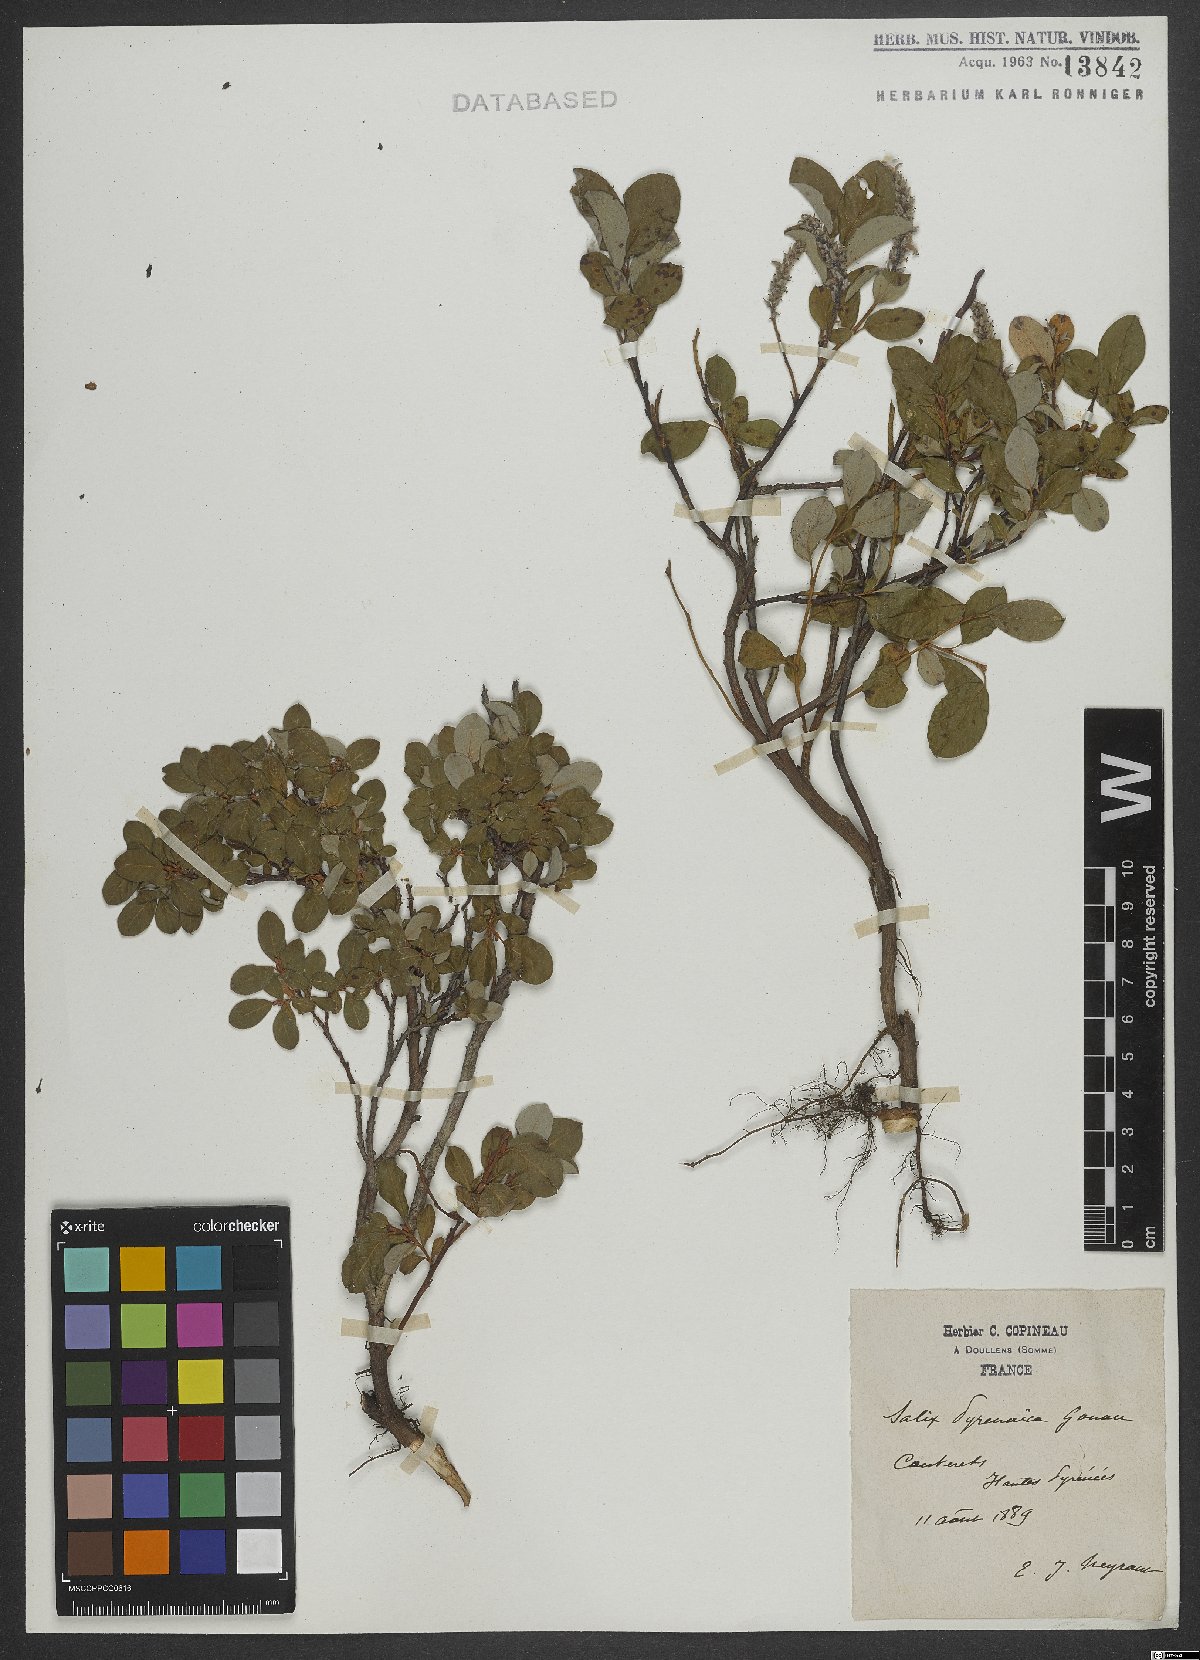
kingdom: Plantae
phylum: Tracheophyta
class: Magnoliopsida
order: Malpighiales
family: Salicaceae
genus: Salix
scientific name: Salix pyrenaica
